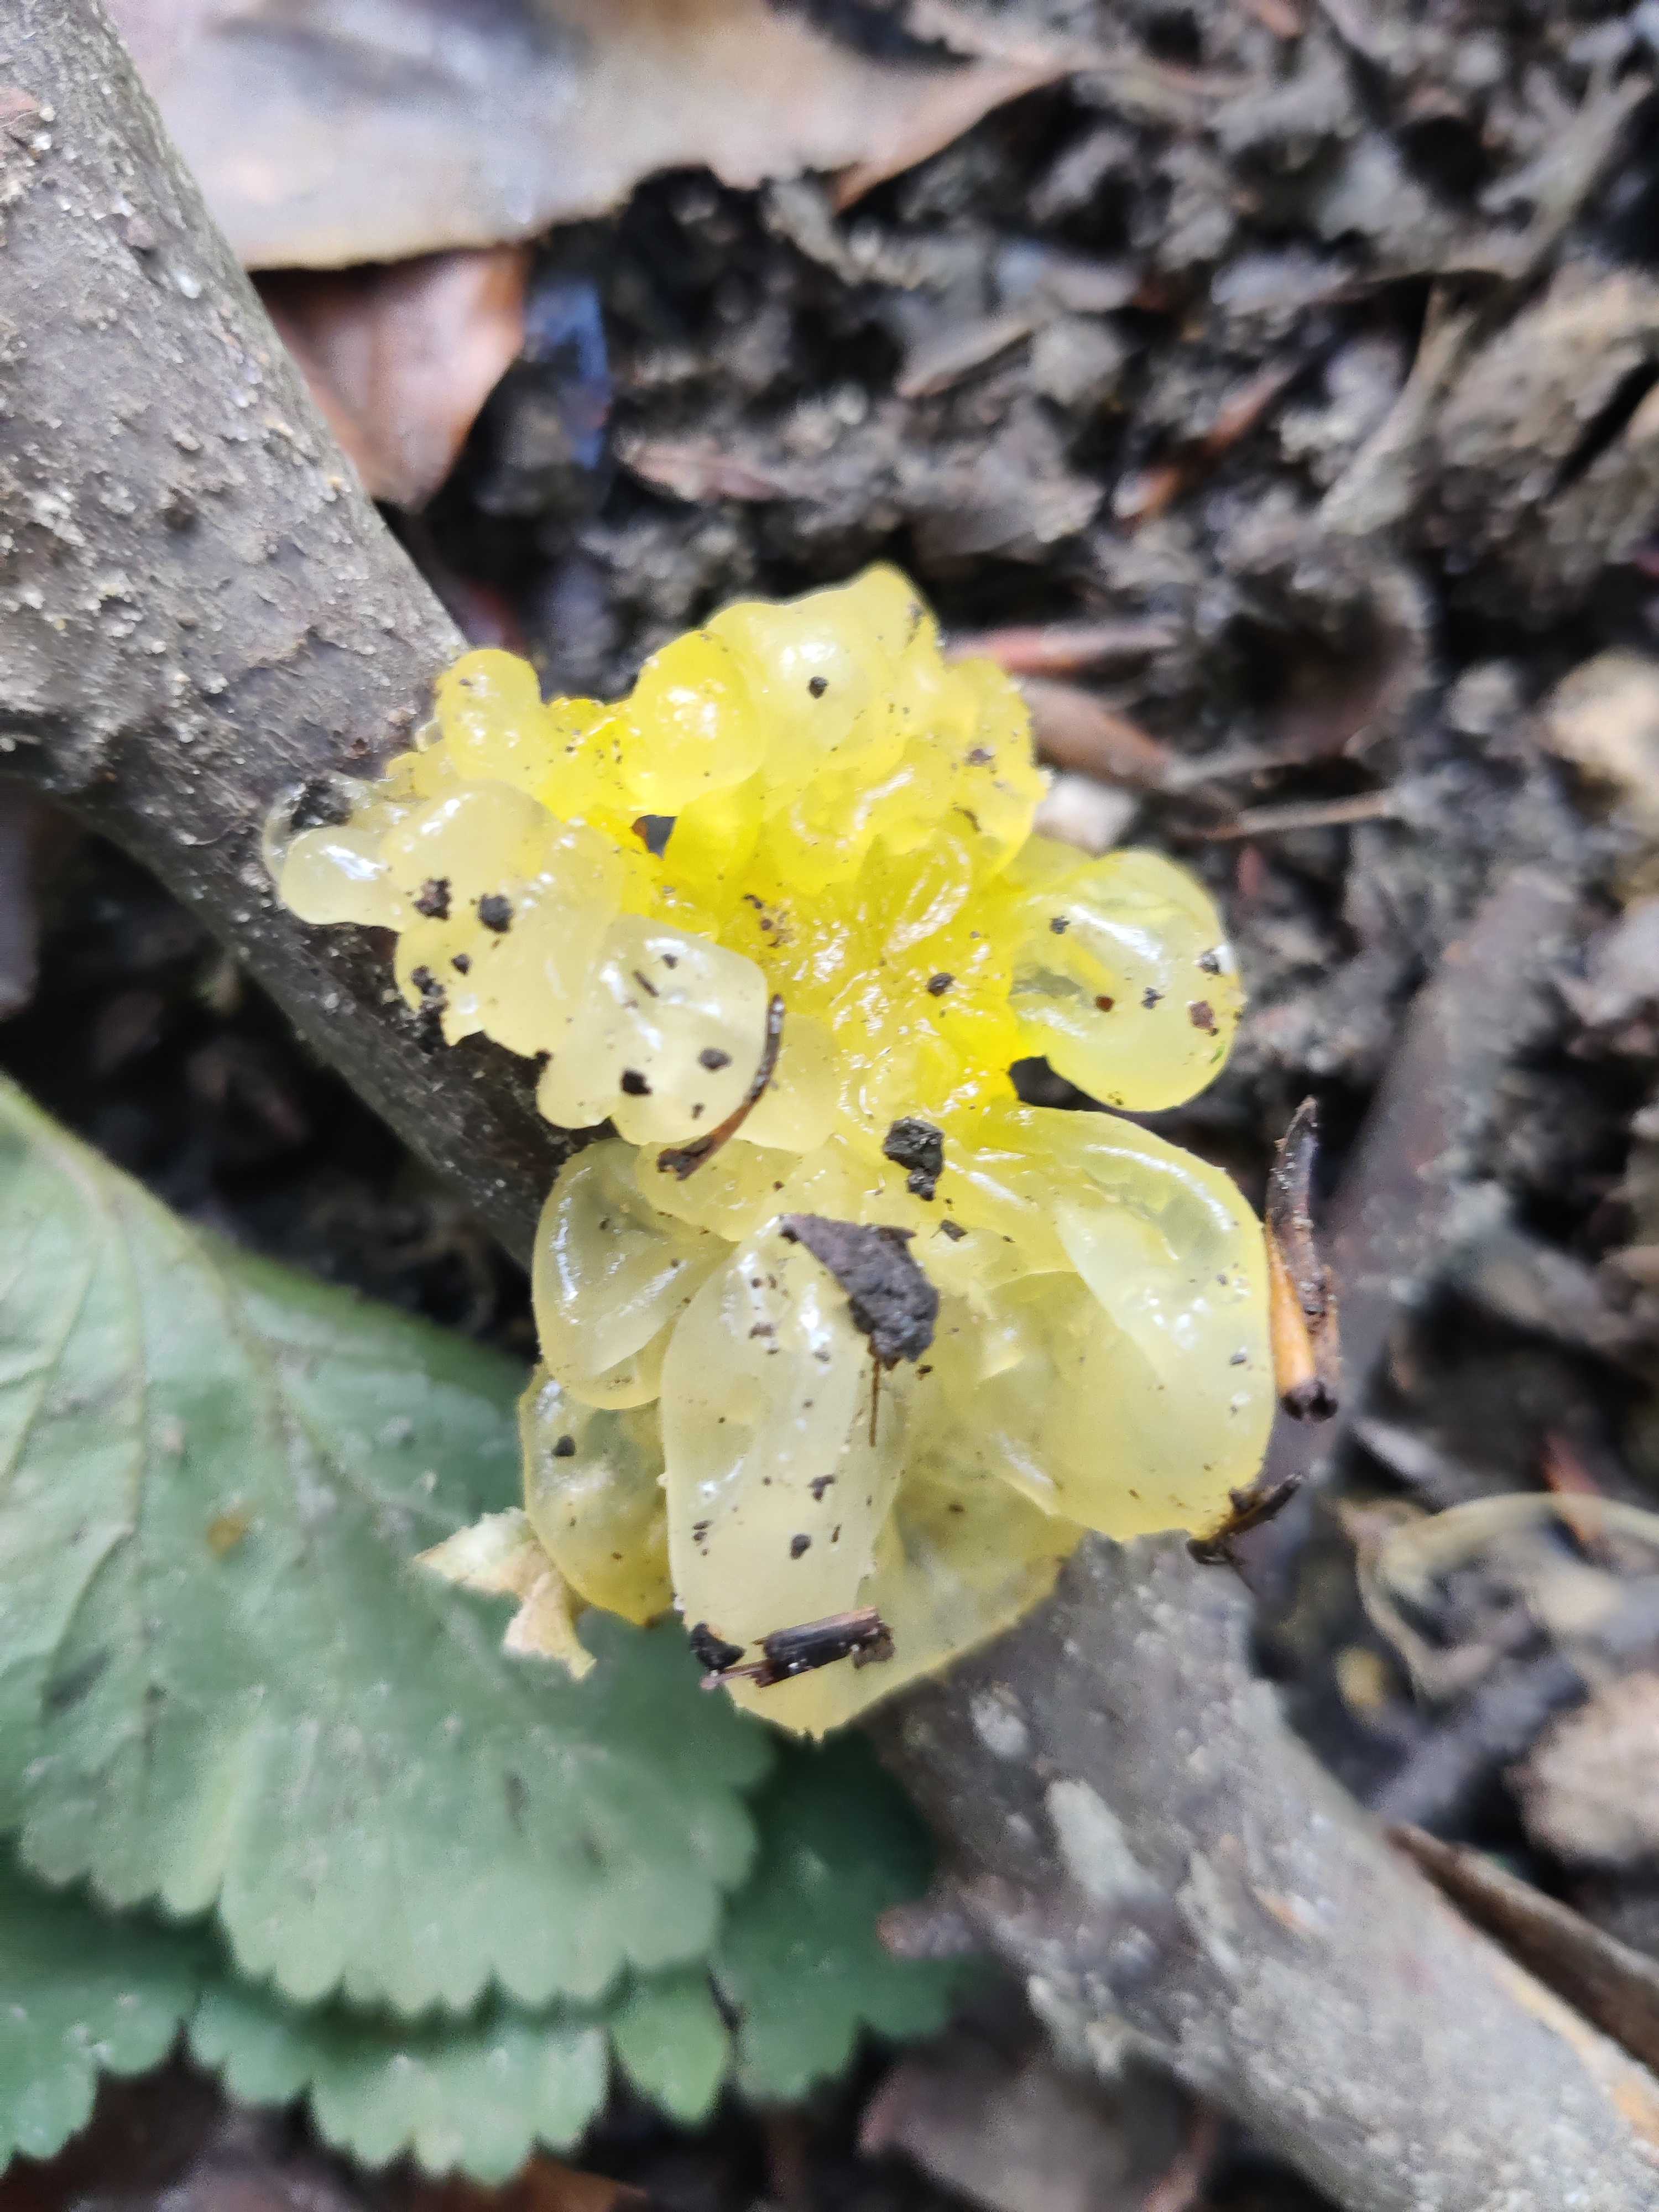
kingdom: Fungi
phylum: Basidiomycota
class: Tremellomycetes
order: Tremellales
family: Tremellaceae
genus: Tremella
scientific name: Tremella mesenterica
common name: gul bævresvamp
